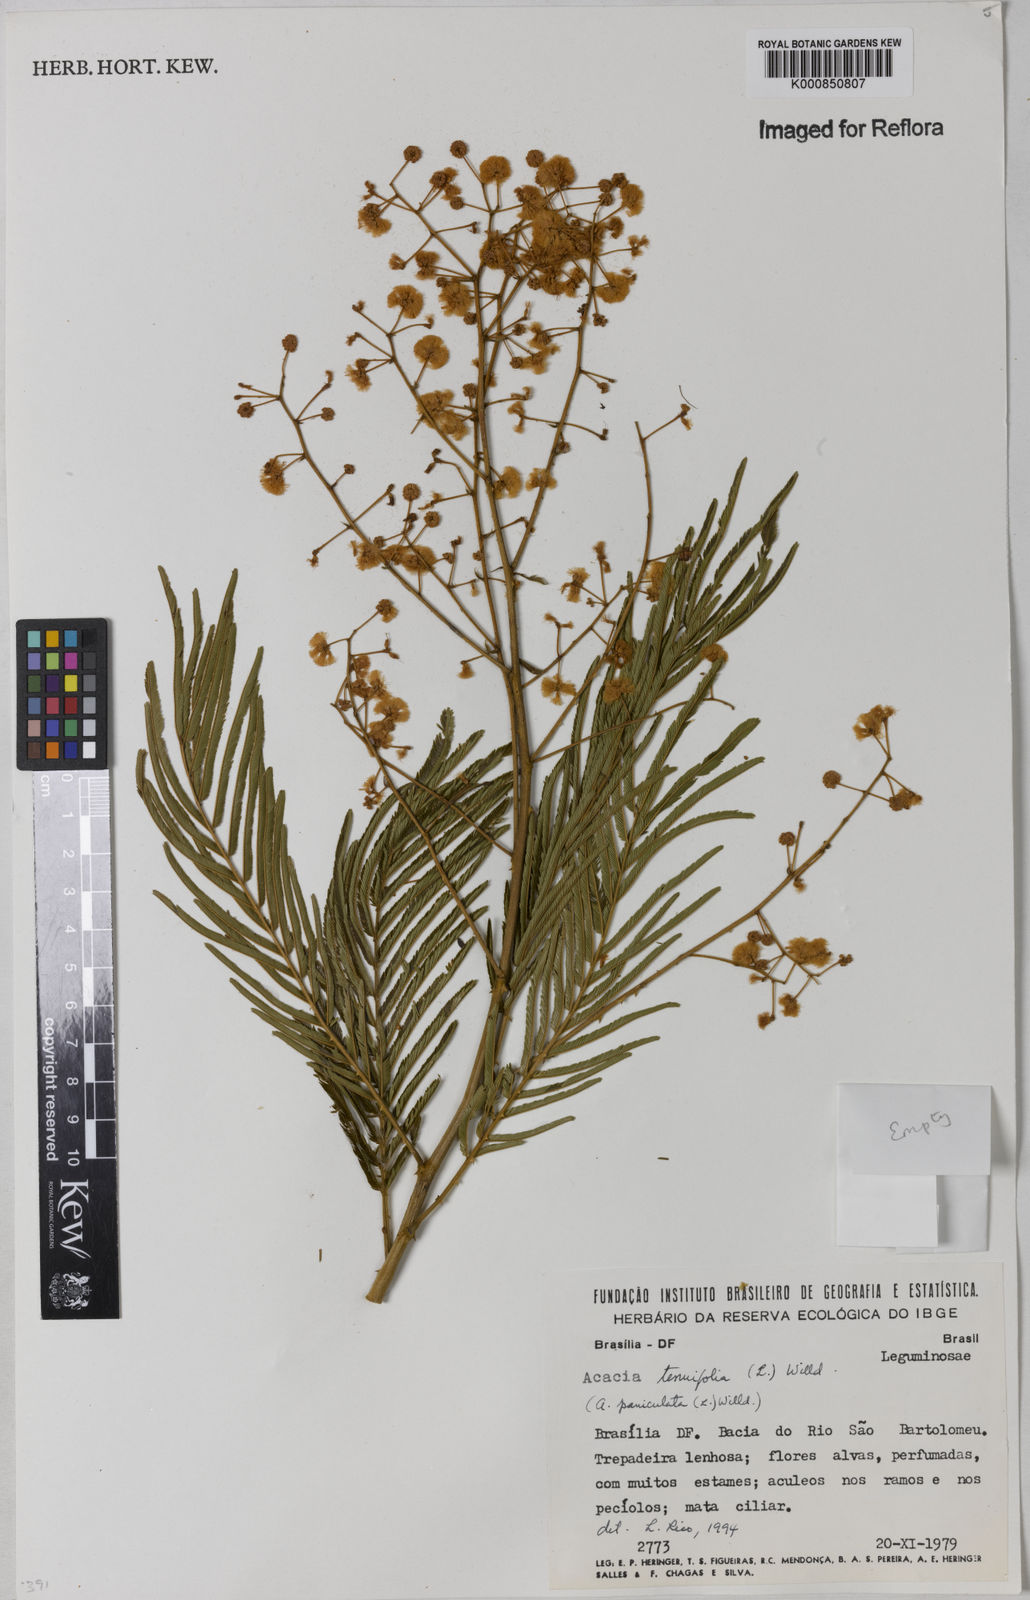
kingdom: Plantae
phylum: Tracheophyta
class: Magnoliopsida
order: Fabales
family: Fabaceae
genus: Senegalia
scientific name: Senegalia tenuifolia
